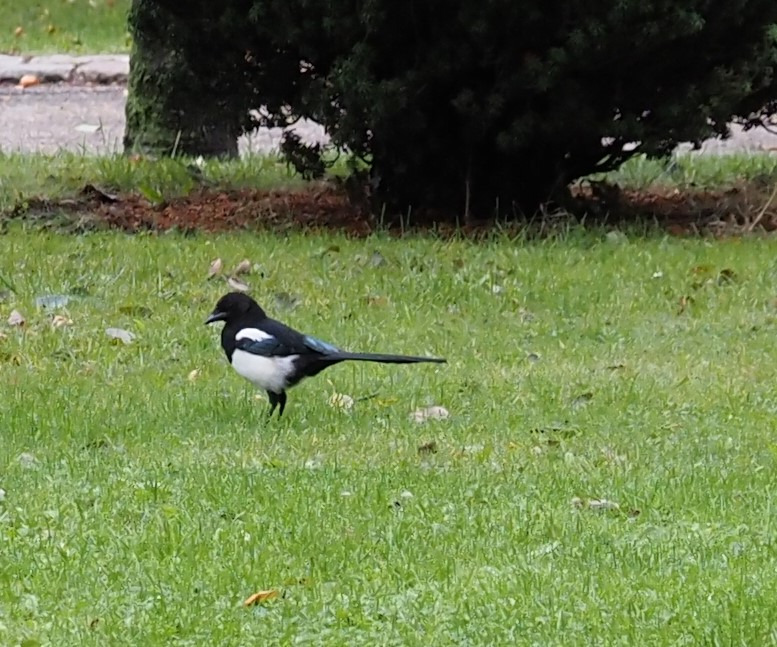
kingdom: Animalia
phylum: Chordata
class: Aves
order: Passeriformes
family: Corvidae
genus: Pica
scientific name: Pica pica
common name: Husskade
